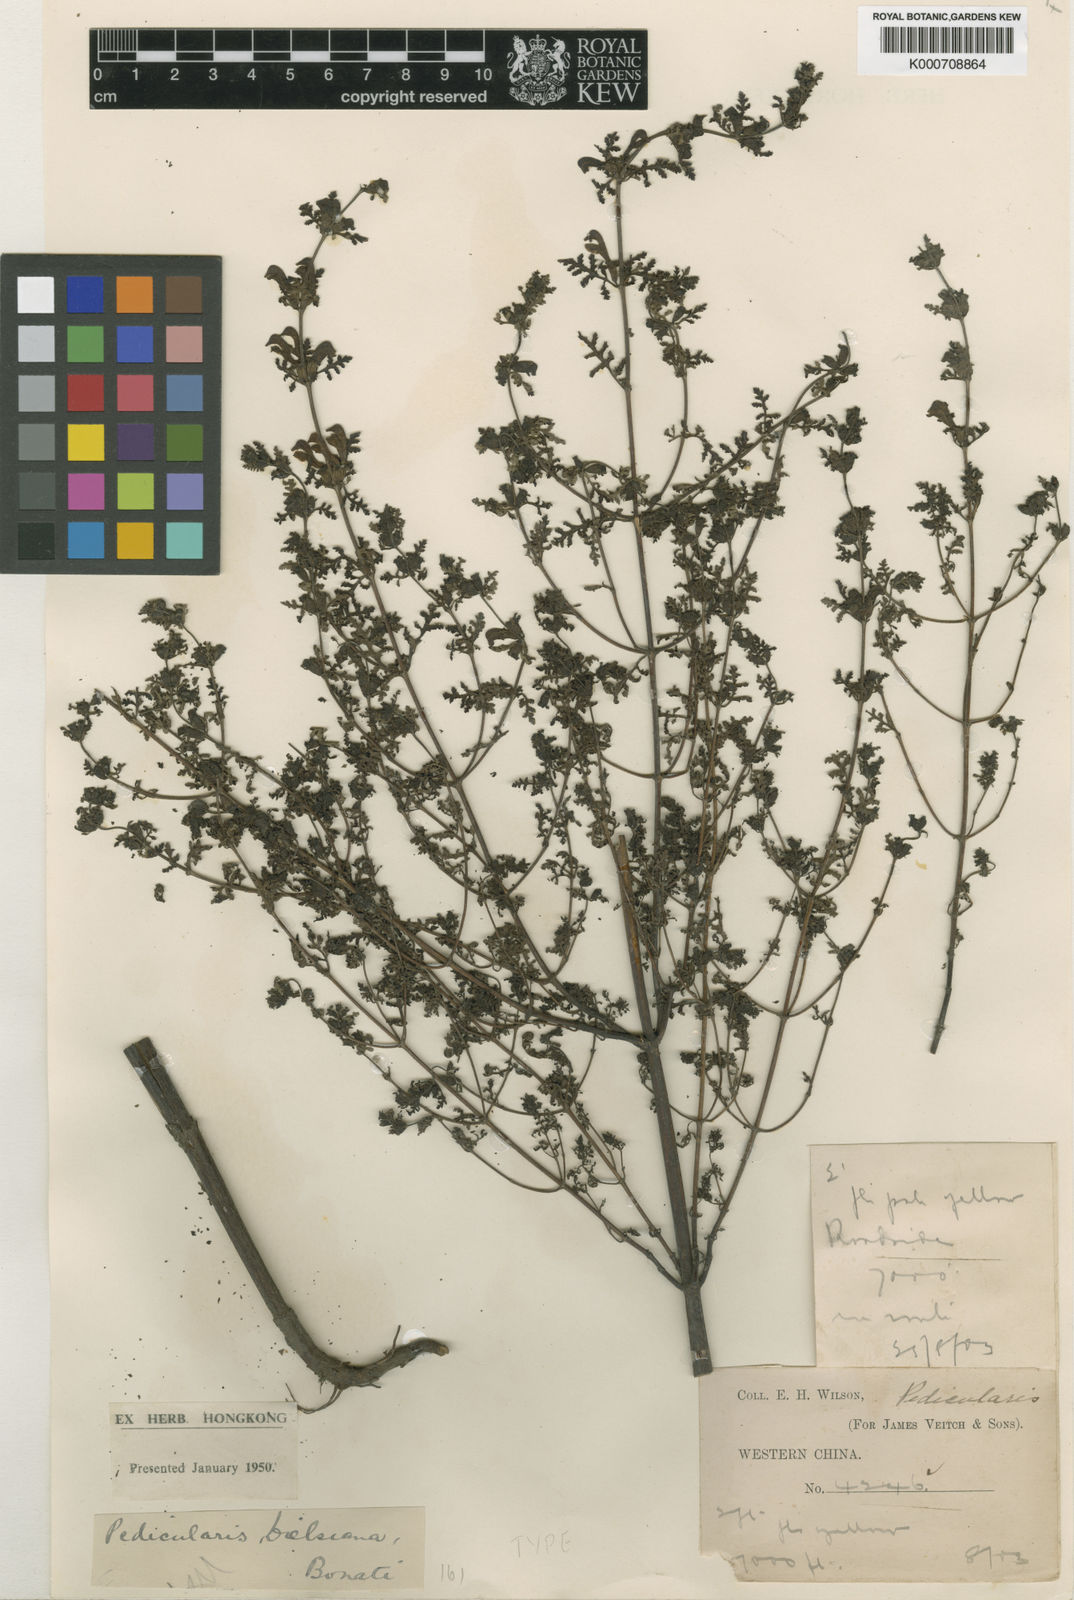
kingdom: Plantae
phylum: Tracheophyta
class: Magnoliopsida
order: Lamiales
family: Orobanchaceae
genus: Pedicularis
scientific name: Pedicularis dielsiana
